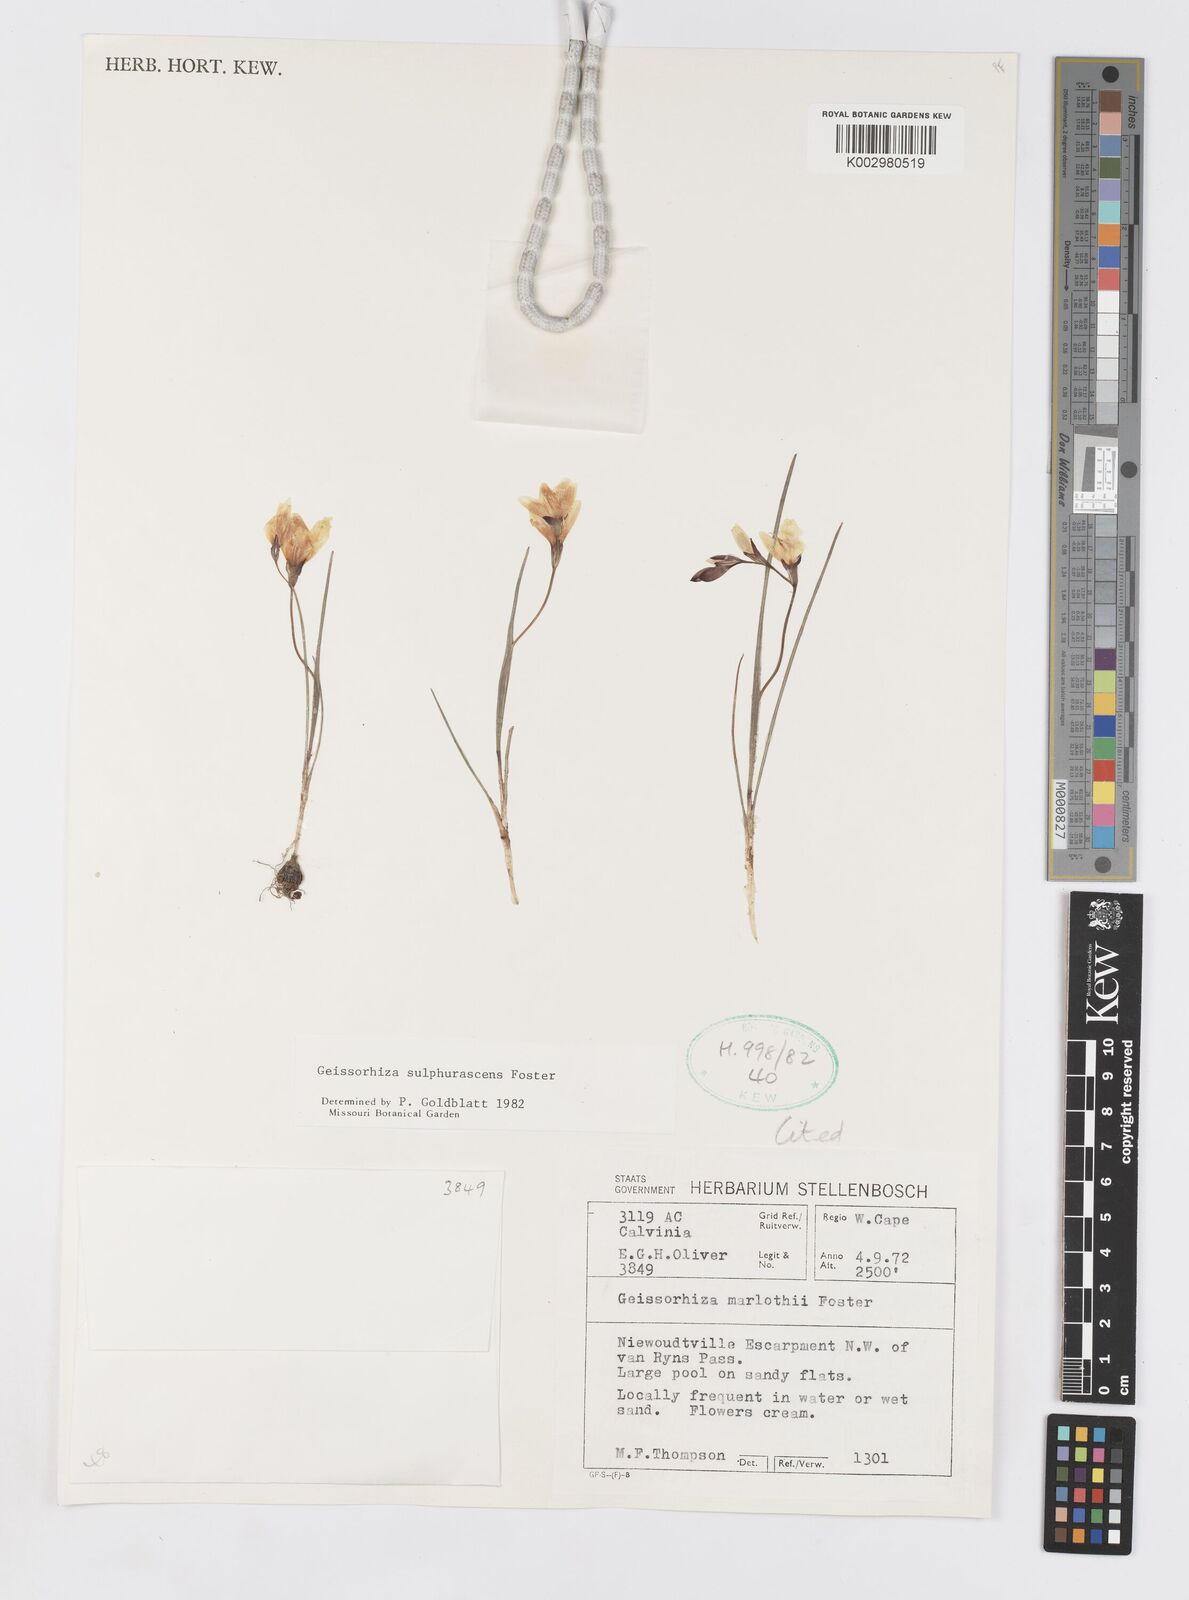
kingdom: Plantae
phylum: Tracheophyta
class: Liliopsida
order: Asparagales
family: Iridaceae
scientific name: Iridaceae
